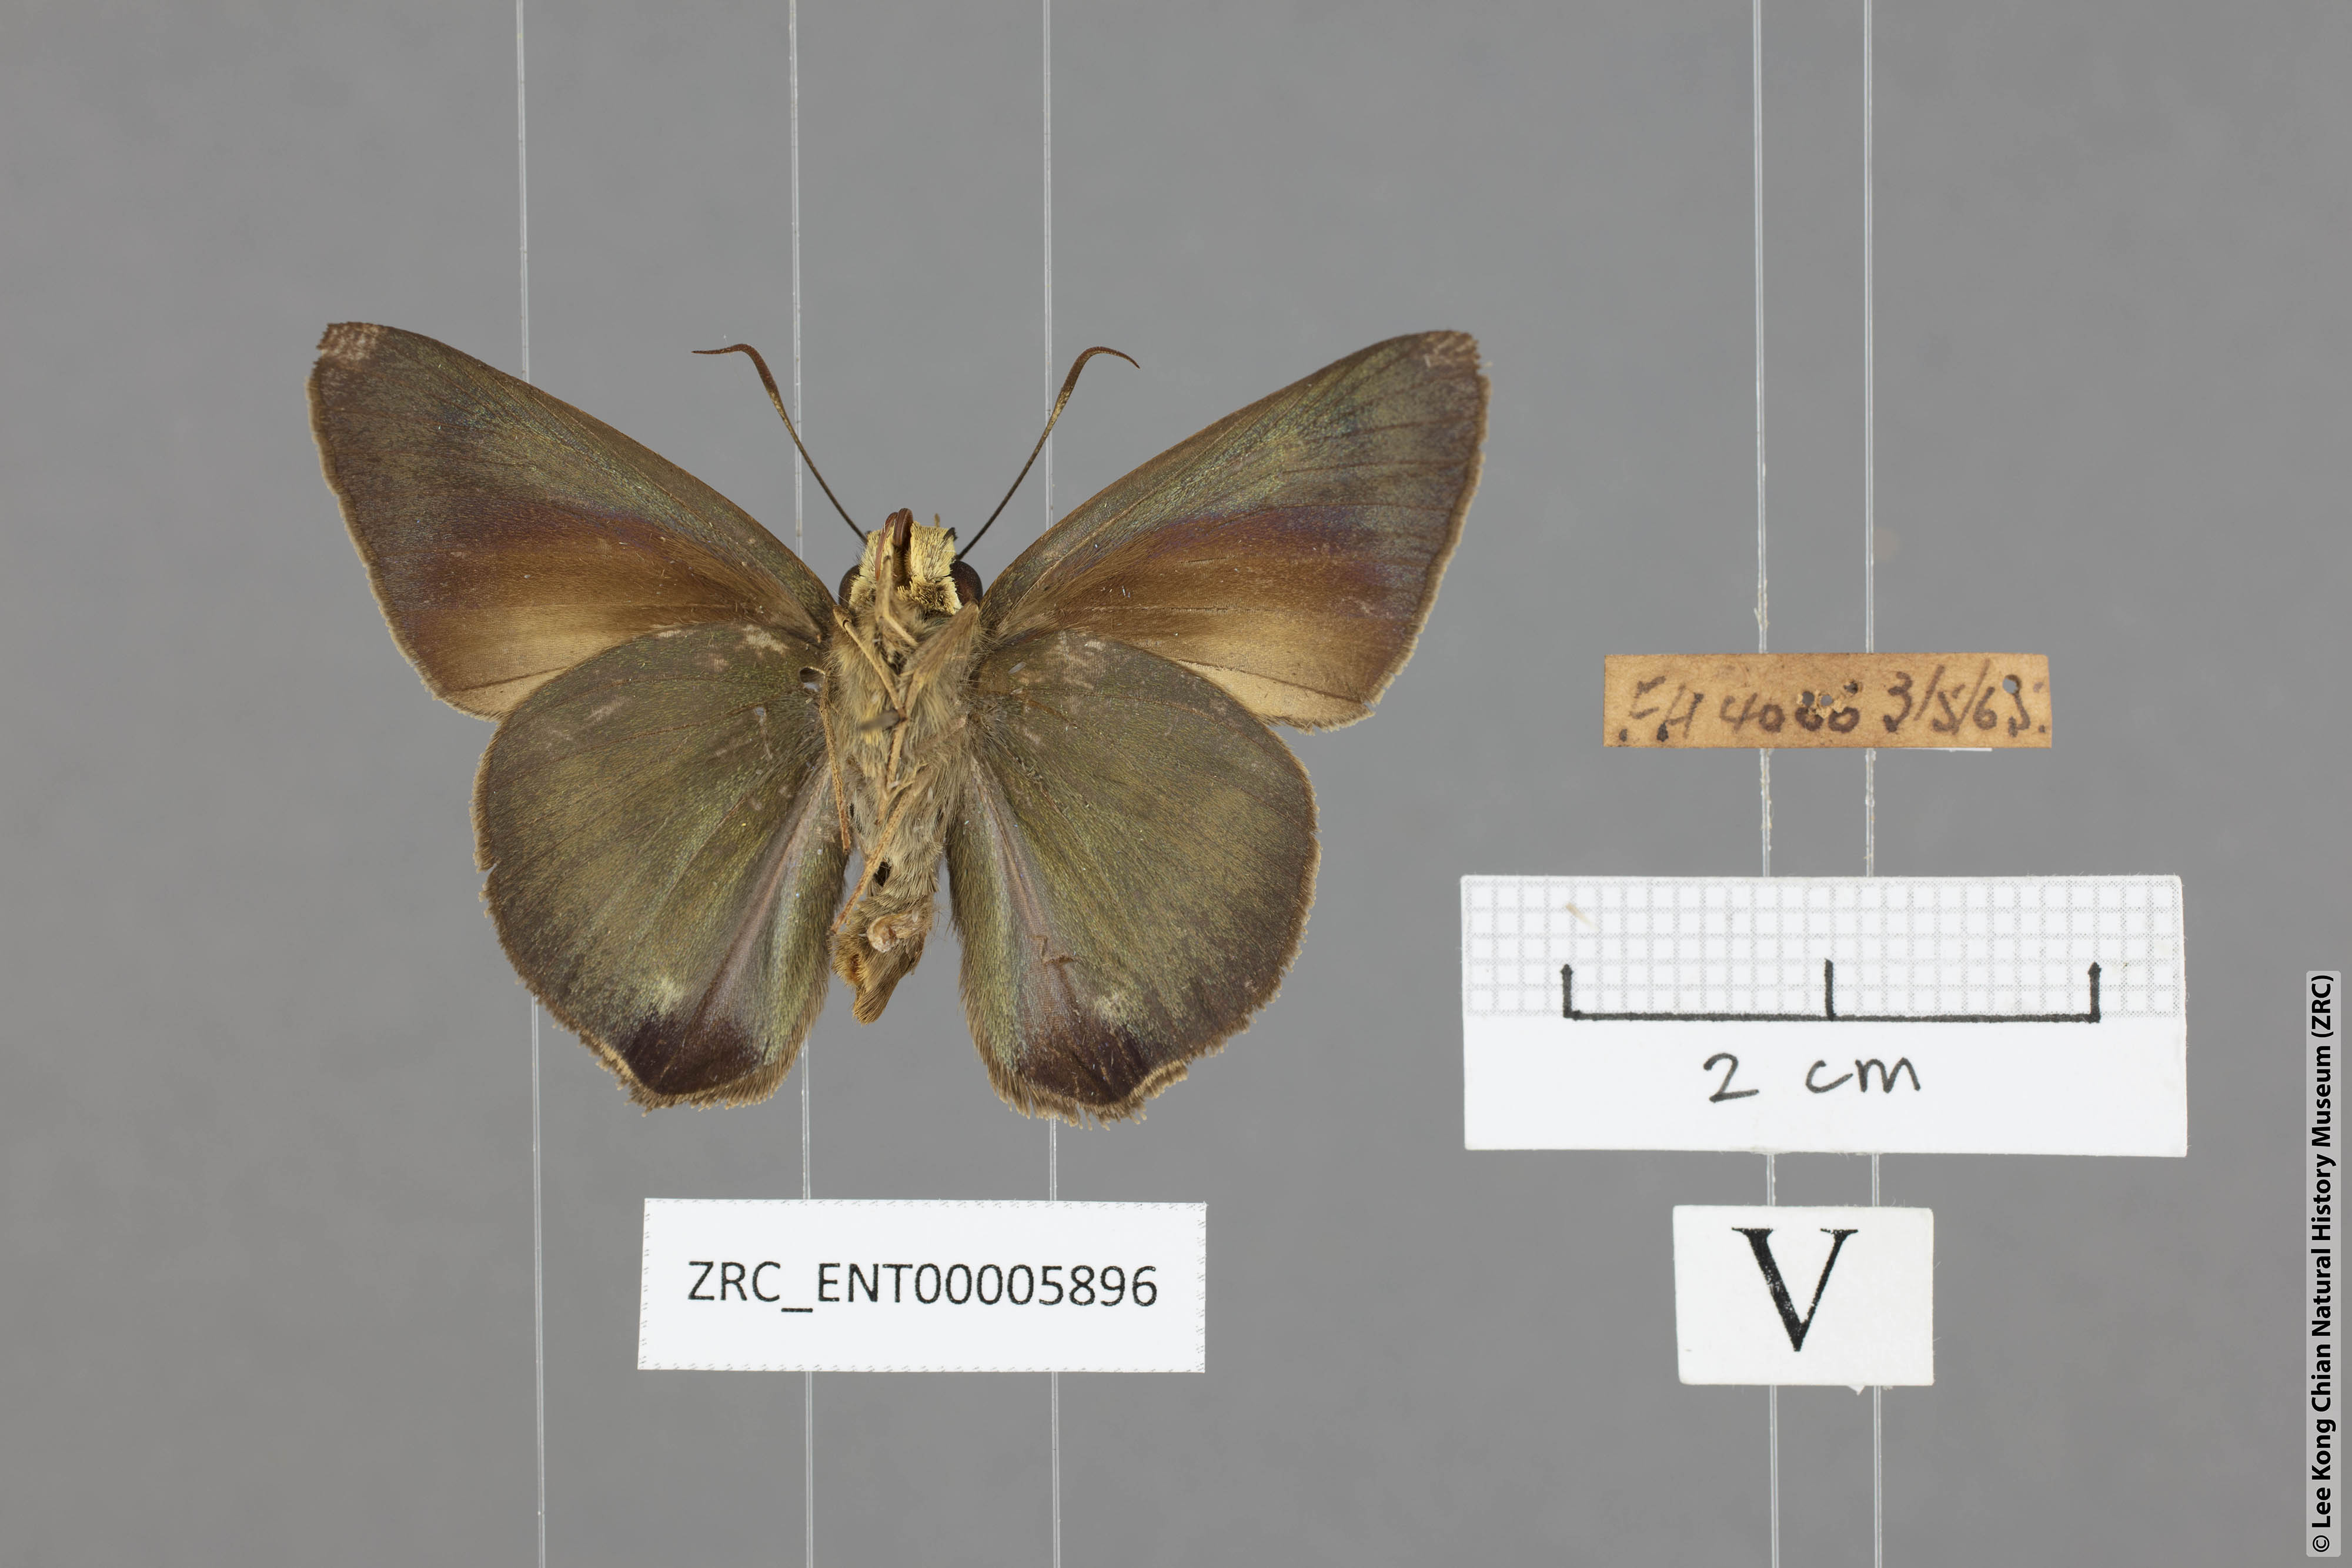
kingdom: Animalia
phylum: Arthropoda
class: Insecta
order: Lepidoptera
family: Hesperiidae
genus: Hasora
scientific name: Hasora salanga
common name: Black-tailed awl
